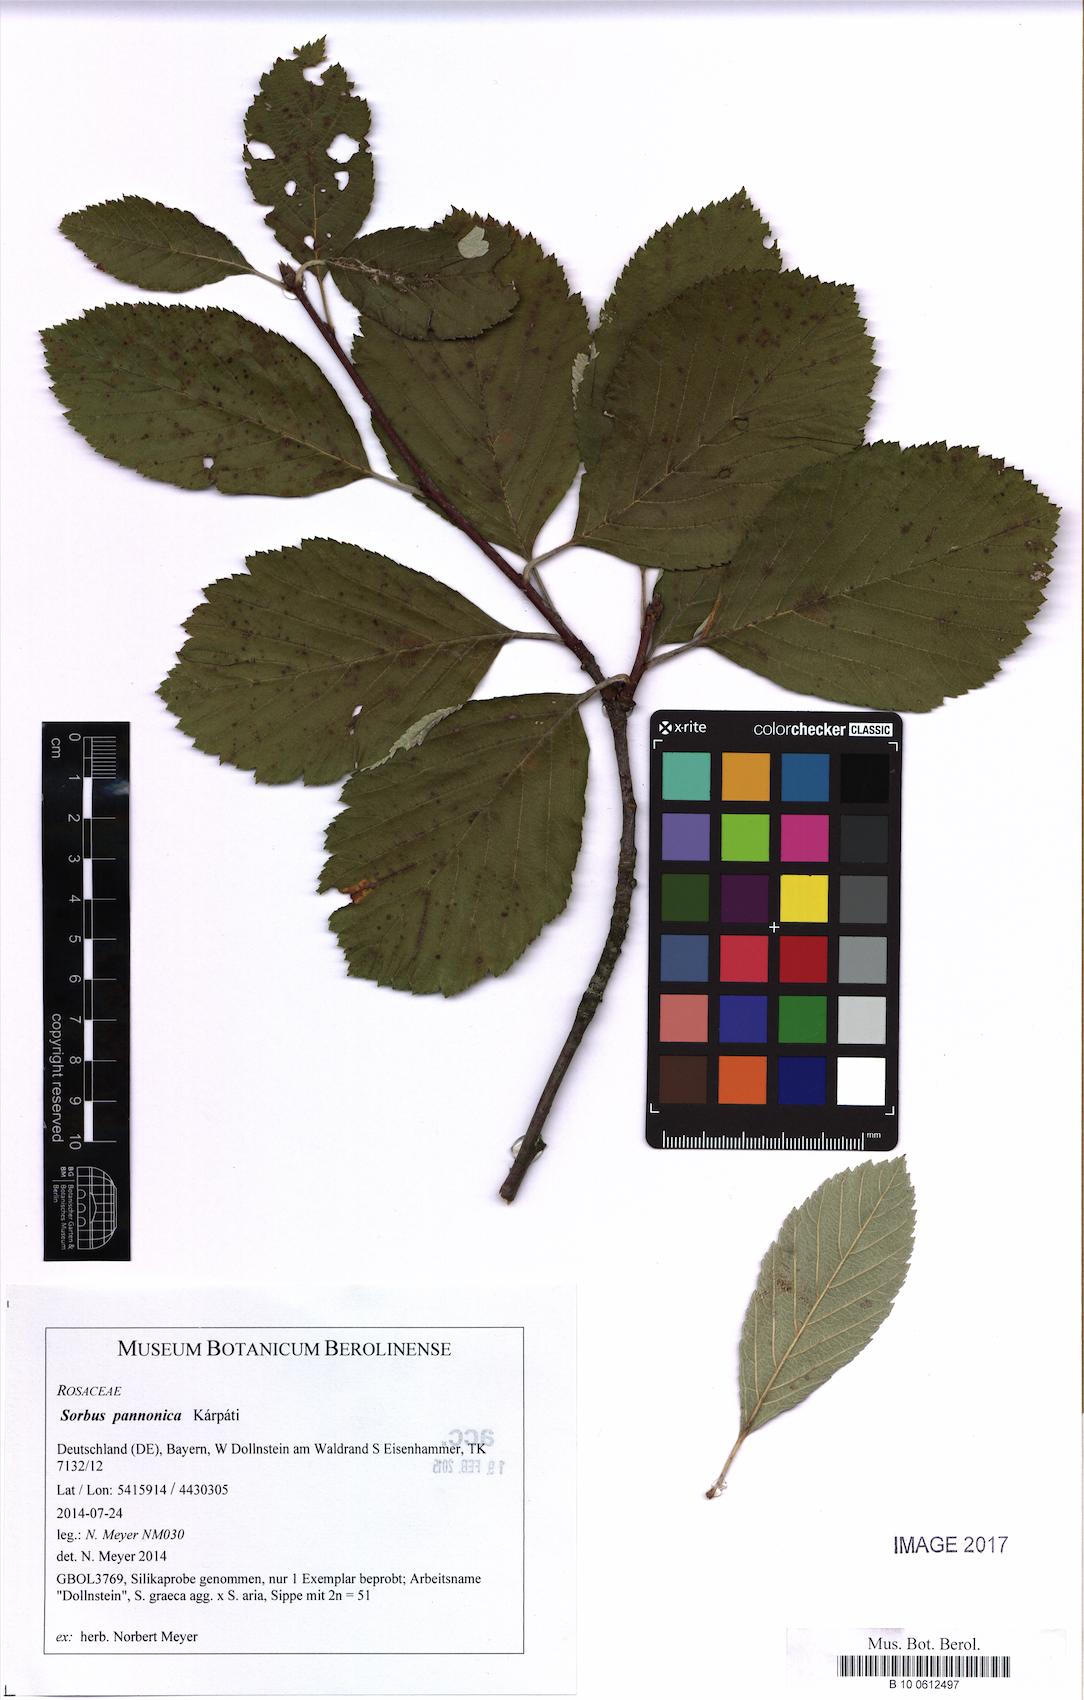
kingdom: Plantae
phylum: Tracheophyta
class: Magnoliopsida
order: Rosales
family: Rosaceae
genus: Aria
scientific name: Aria pannonica
